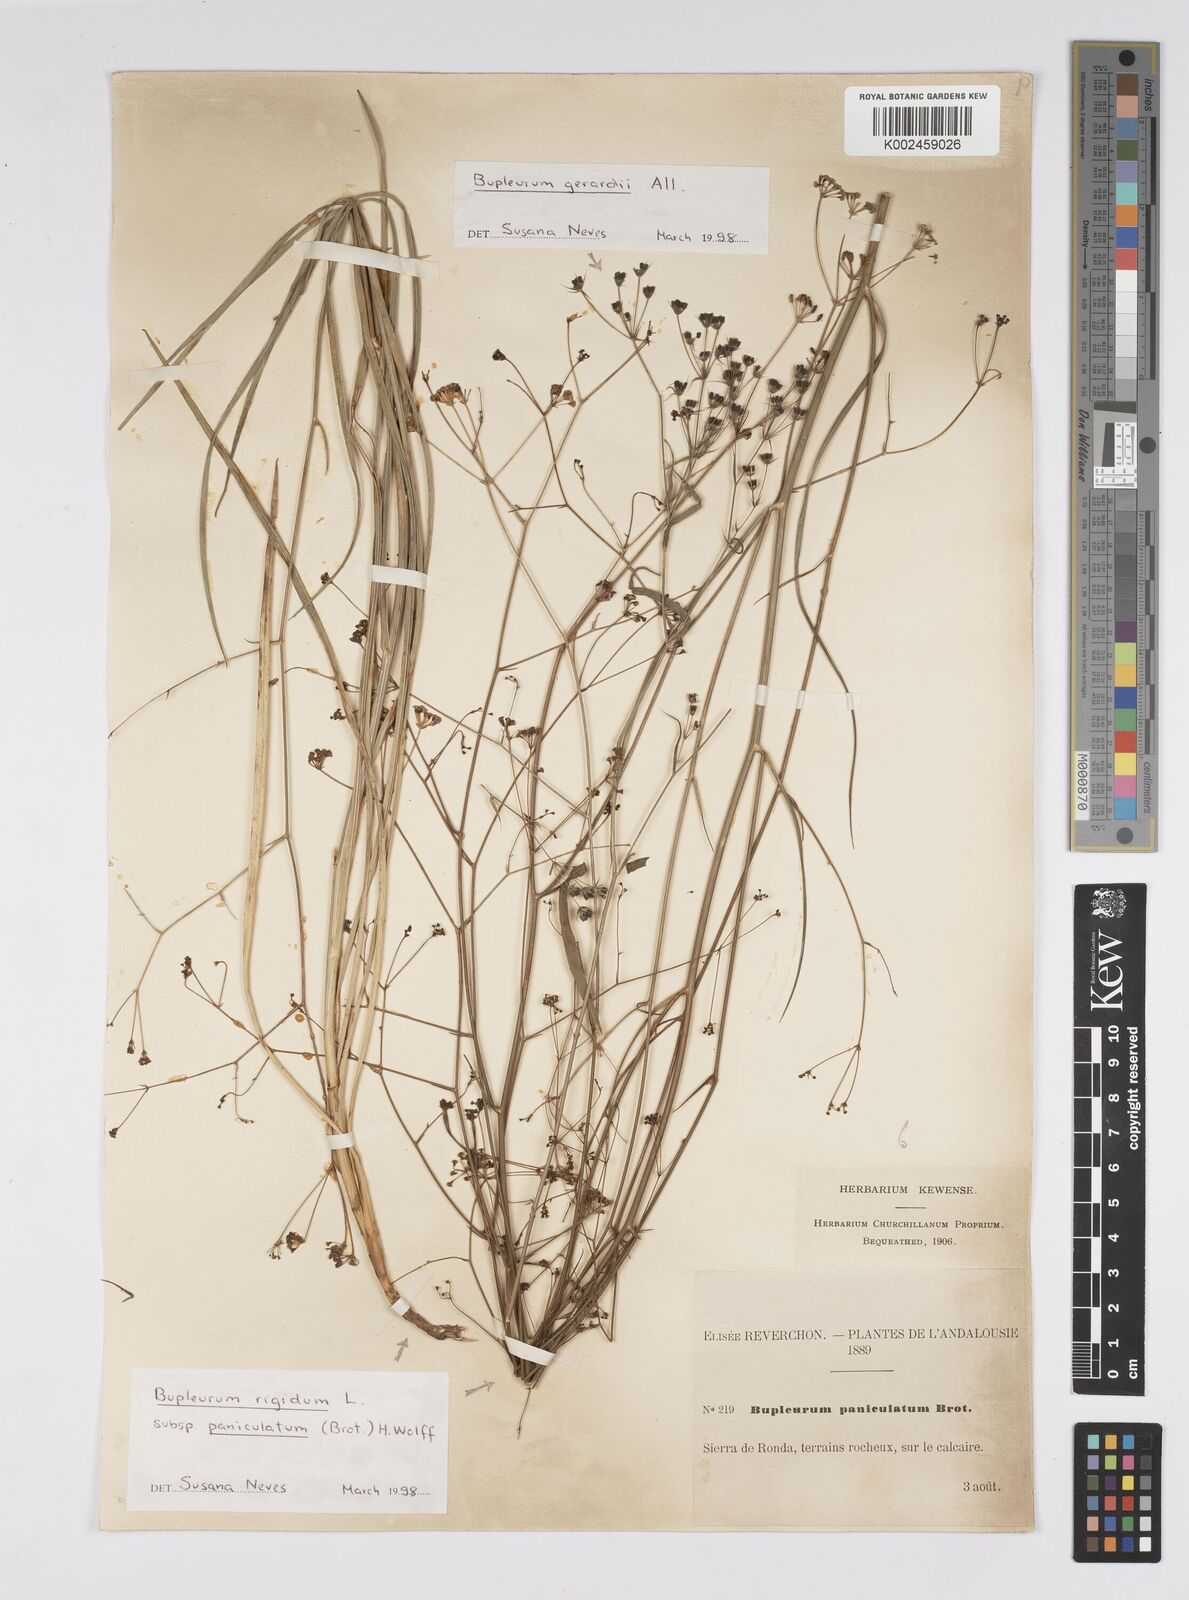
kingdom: Plantae
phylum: Tracheophyta
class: Magnoliopsida
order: Apiales
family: Apiaceae
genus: Bupleurum
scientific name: Bupleurum rigidum
